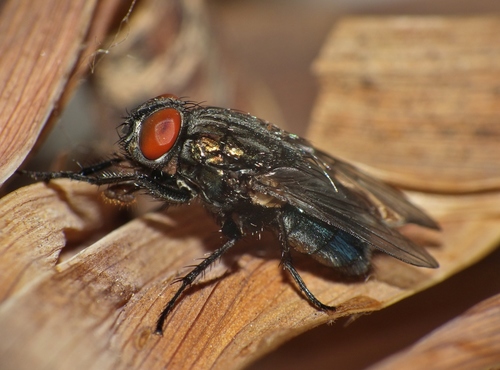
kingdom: Animalia
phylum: Arthropoda
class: Insecta
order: Diptera
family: Calliphoridae
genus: Protocalliphora
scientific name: Protocalliphora
